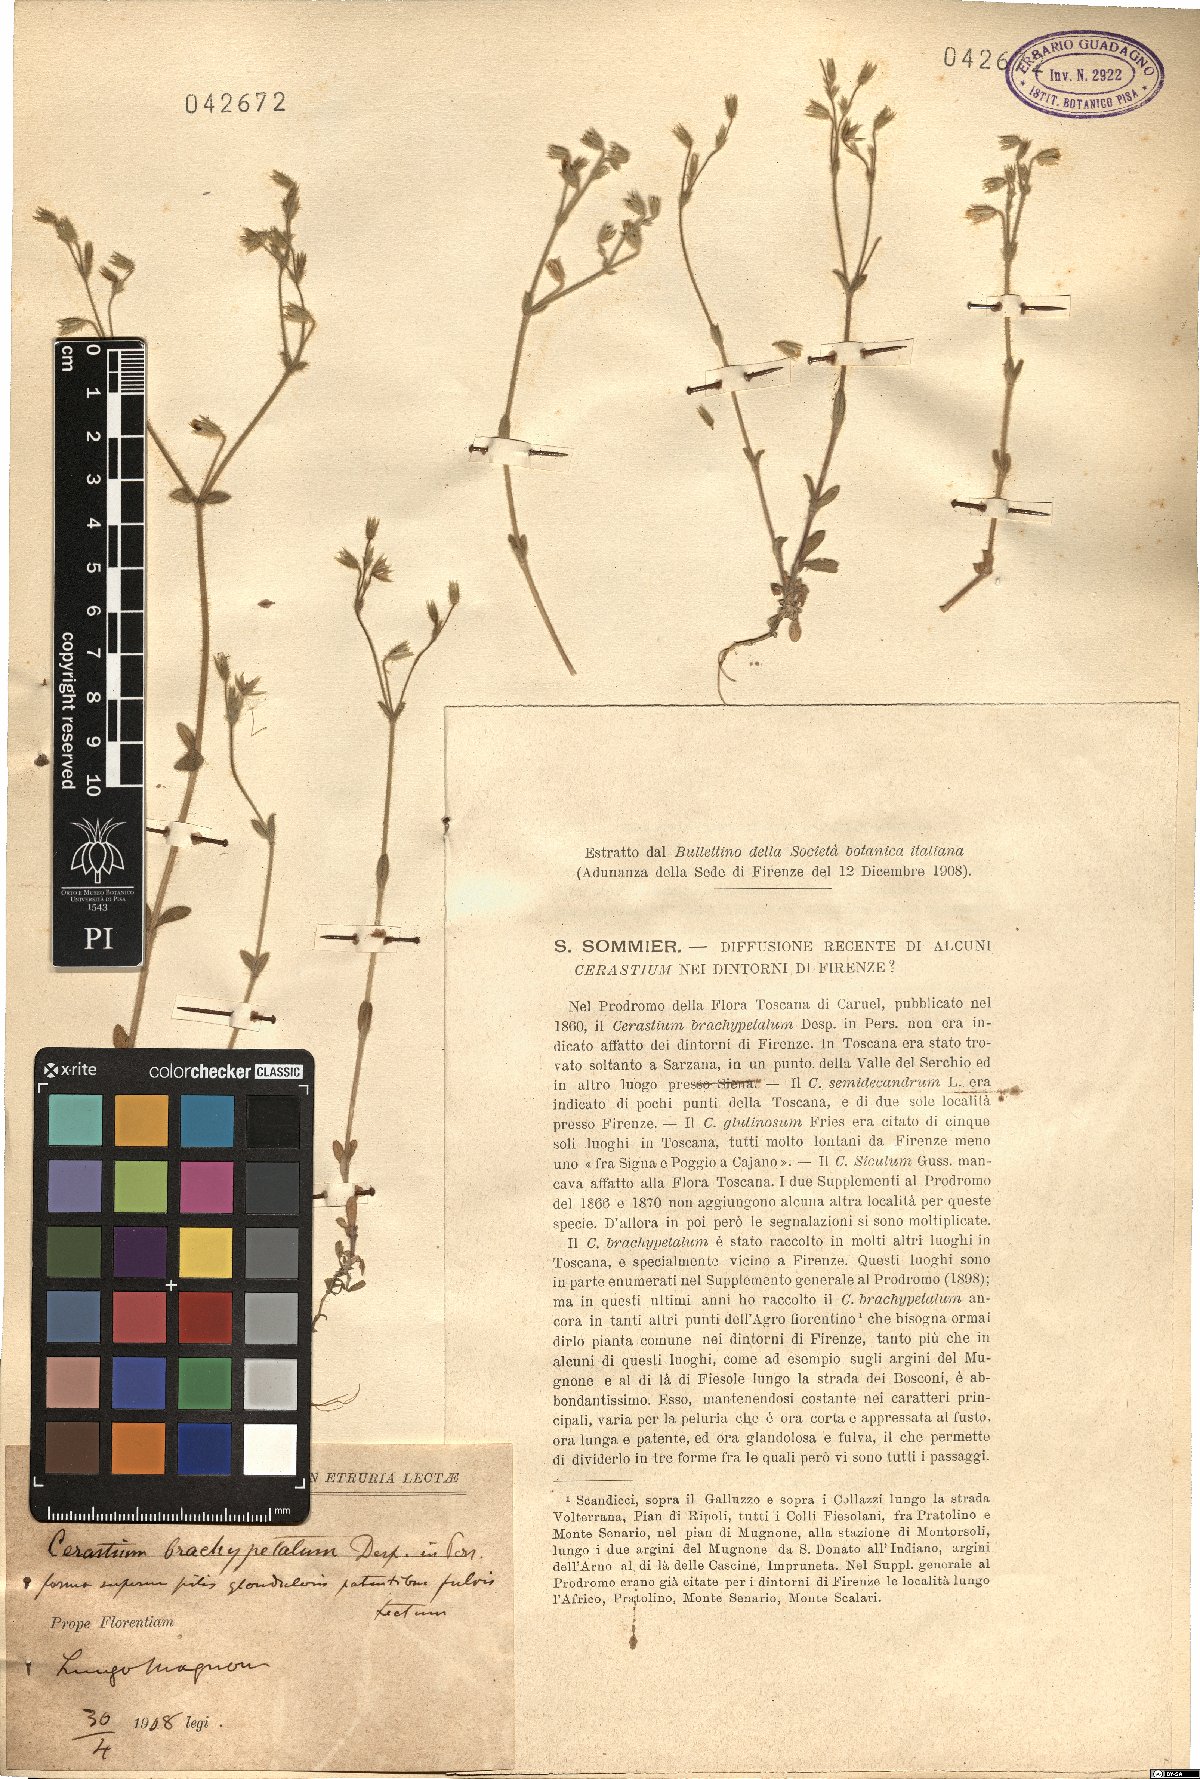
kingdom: Plantae
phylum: Tracheophyta
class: Magnoliopsida
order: Caryophyllales
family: Caryophyllaceae
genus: Cerastium
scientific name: Cerastium brachypetalum
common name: Grey mouse-ear
